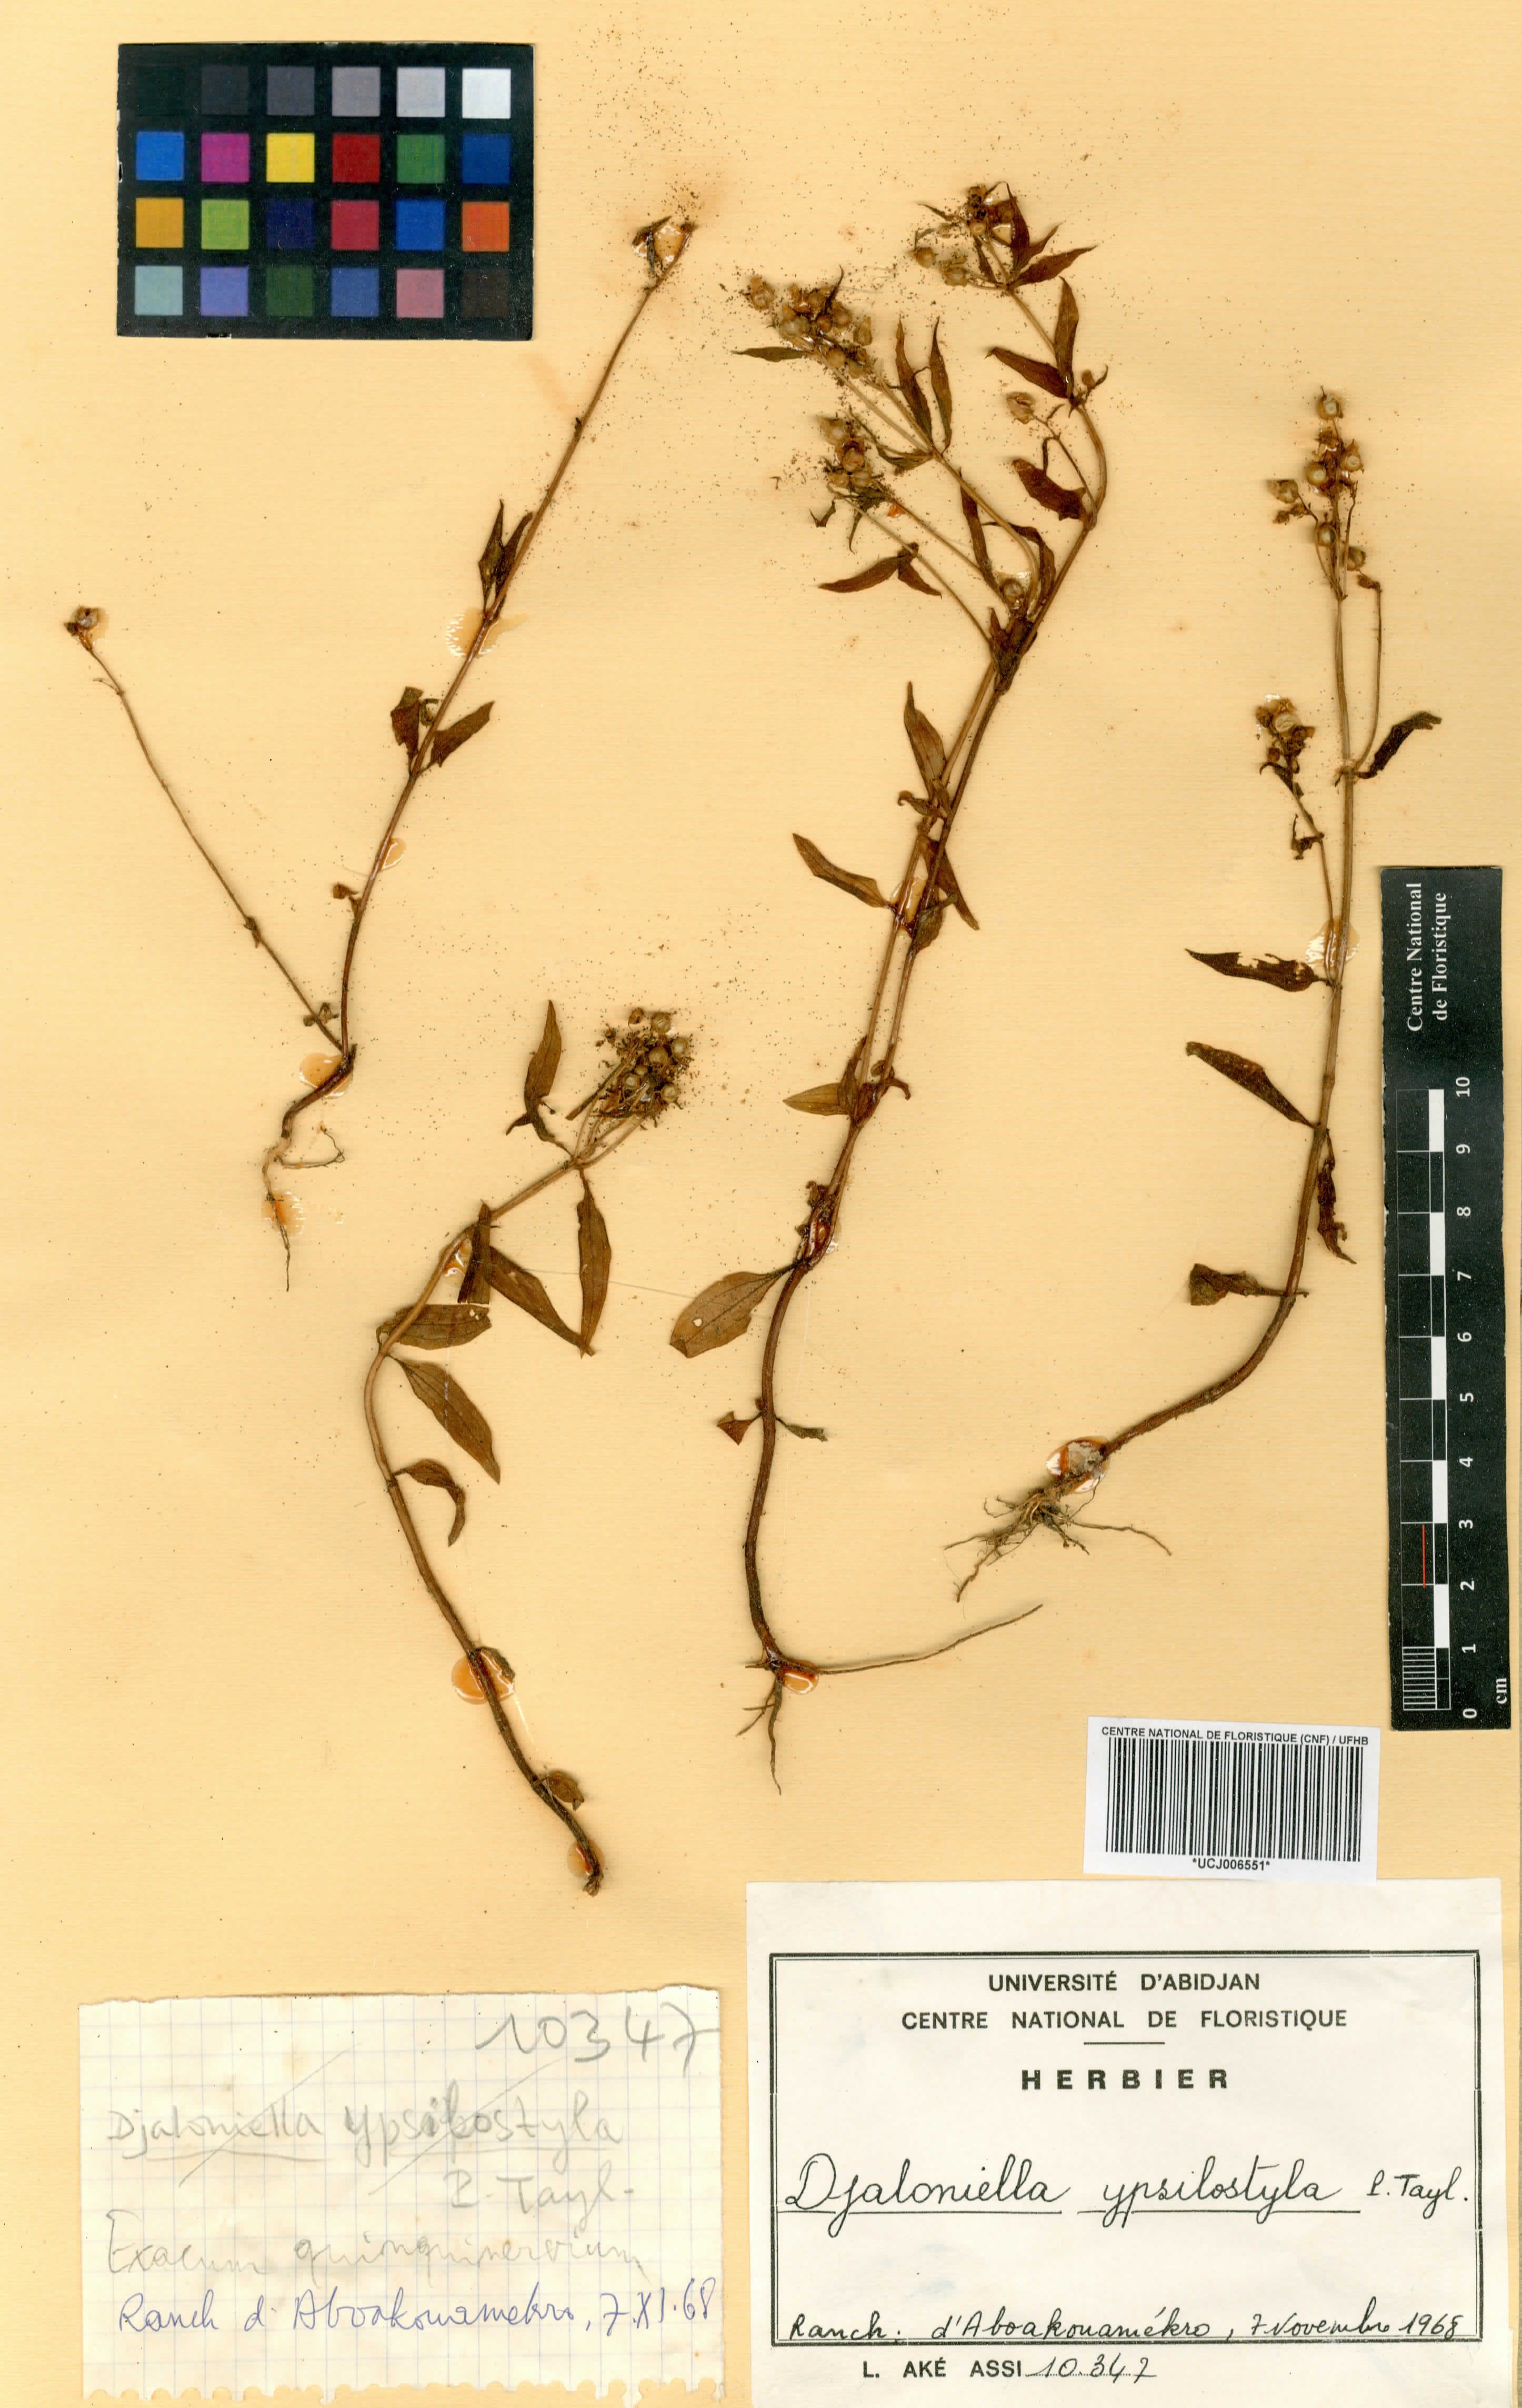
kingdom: Plantae
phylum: Tracheophyta
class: Magnoliopsida
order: Gentianales
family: Gentianaceae
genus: Djaloniella
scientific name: Djaloniella ypsilostyla
